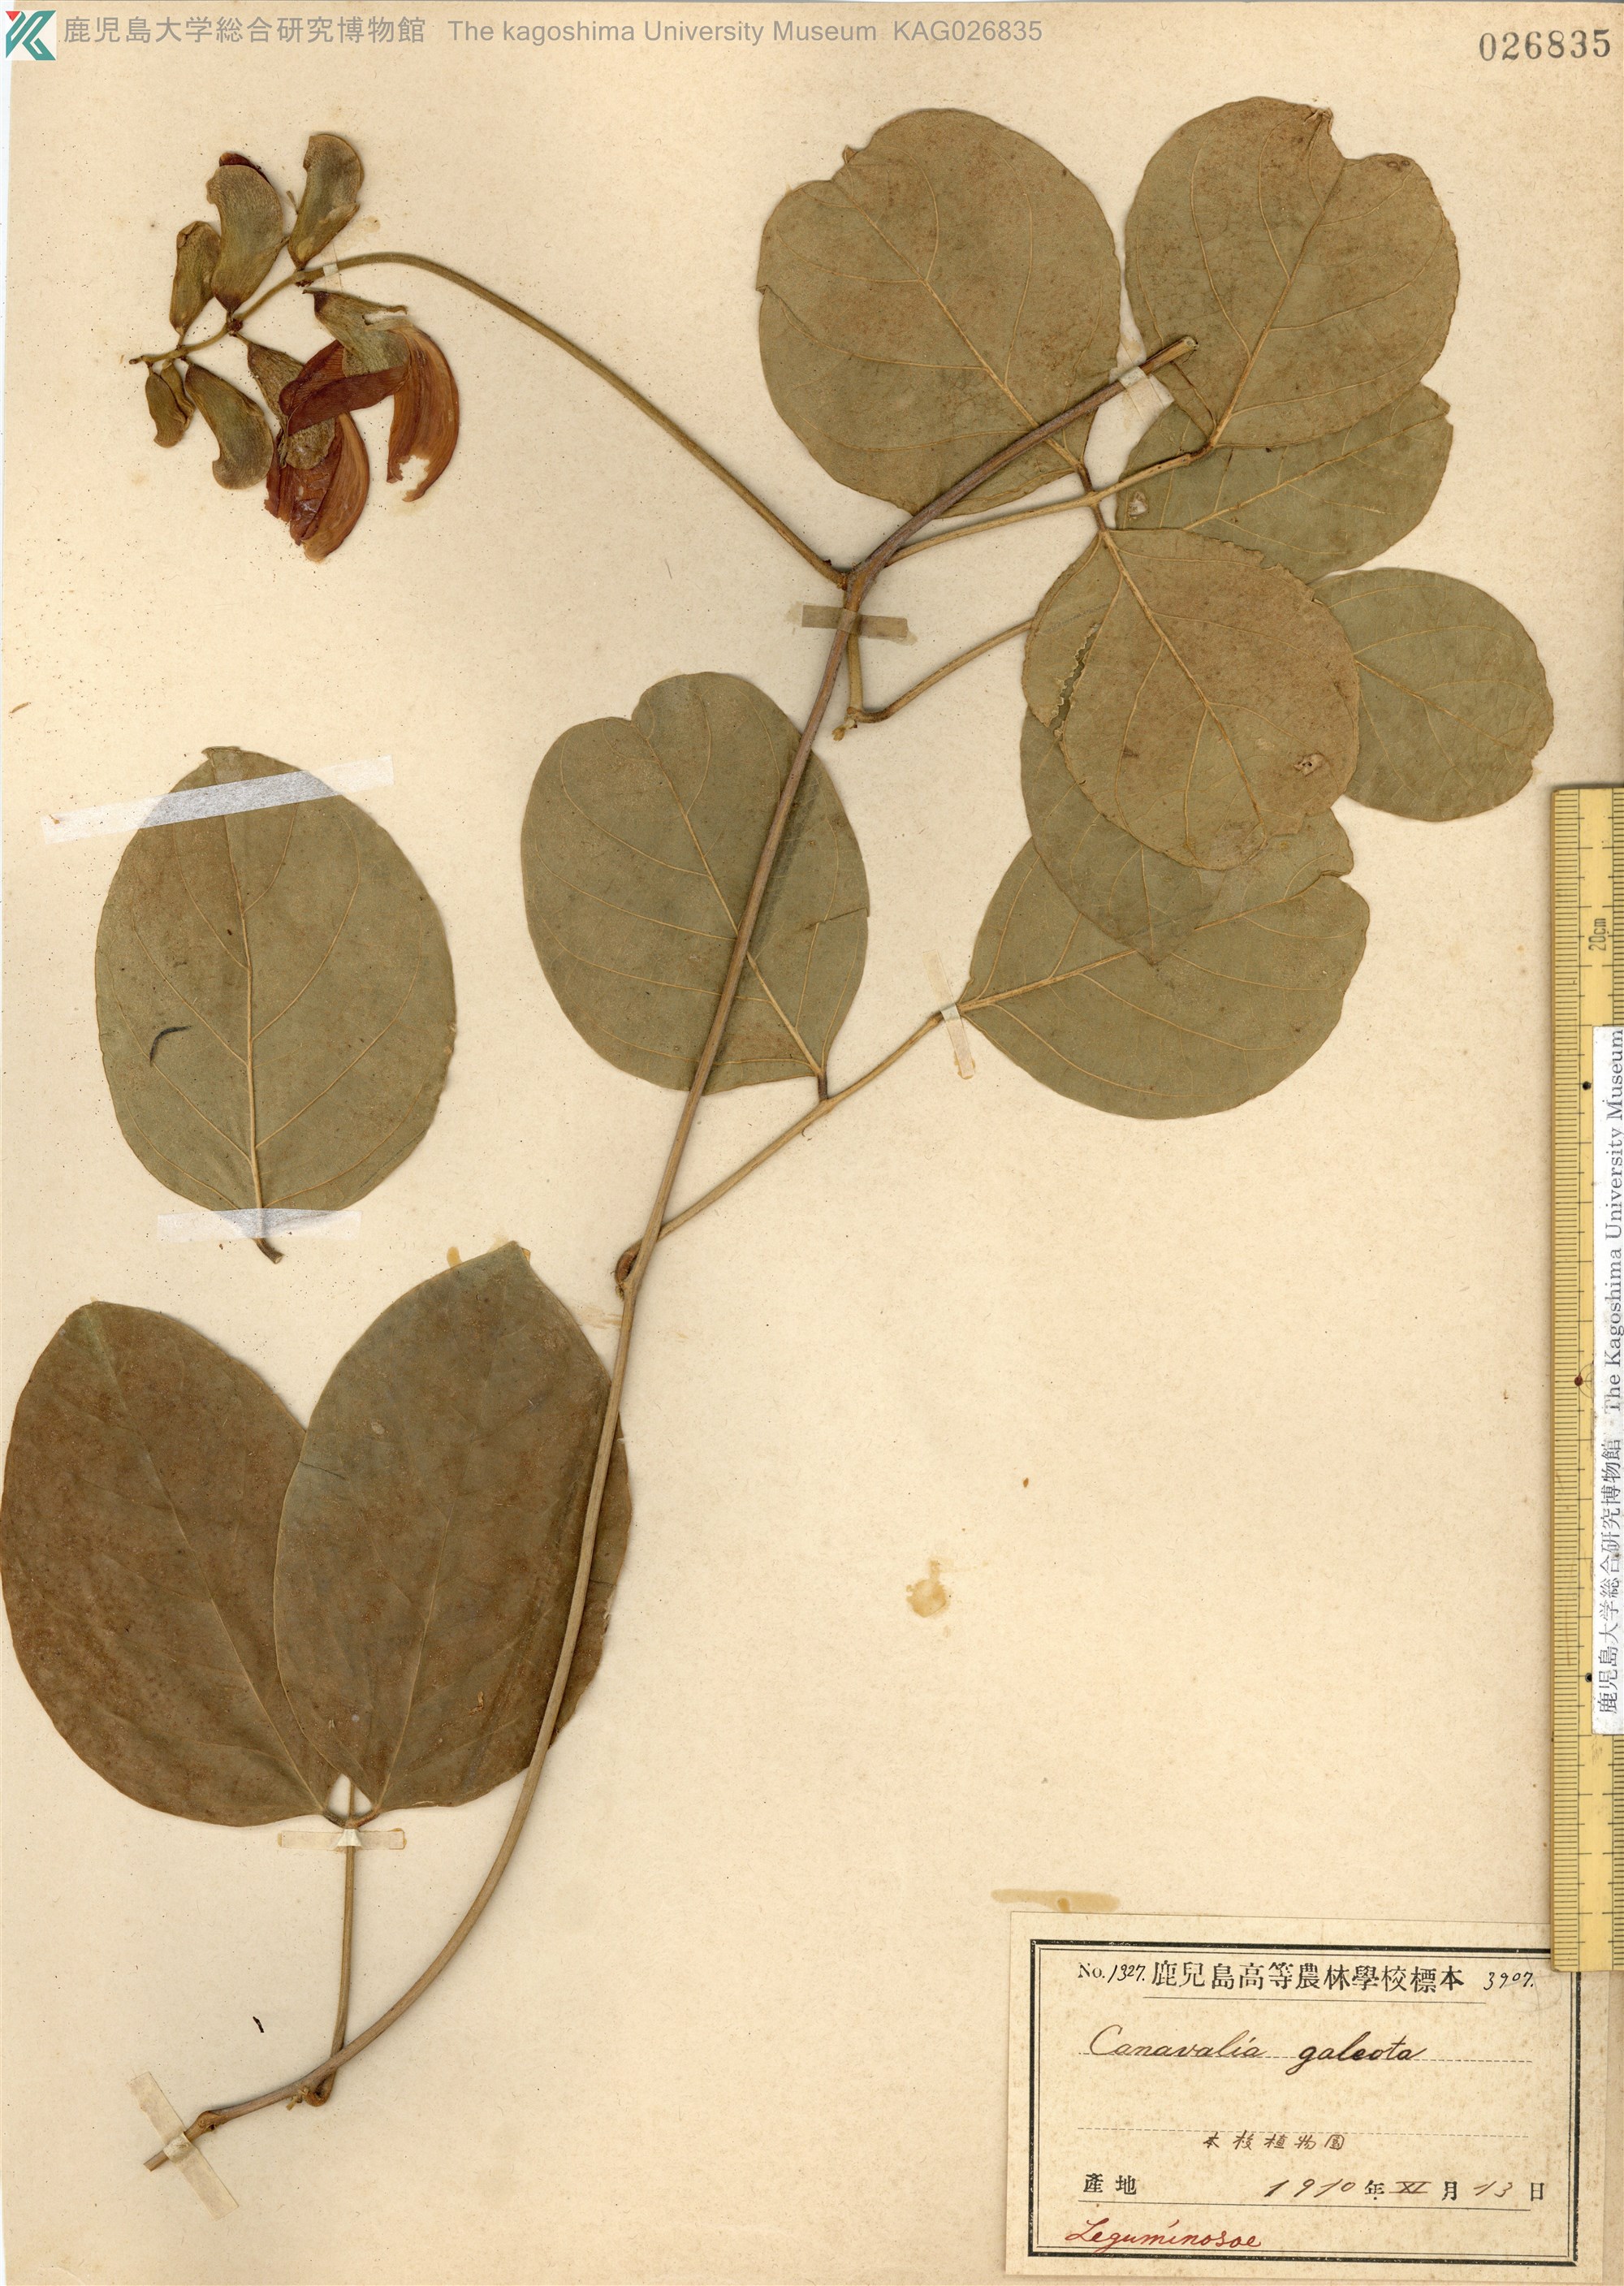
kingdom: Plantae
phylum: Tracheophyta
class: Magnoliopsida
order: Fabales
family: Fabaceae
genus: Canavalia
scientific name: Canavalia galeata
